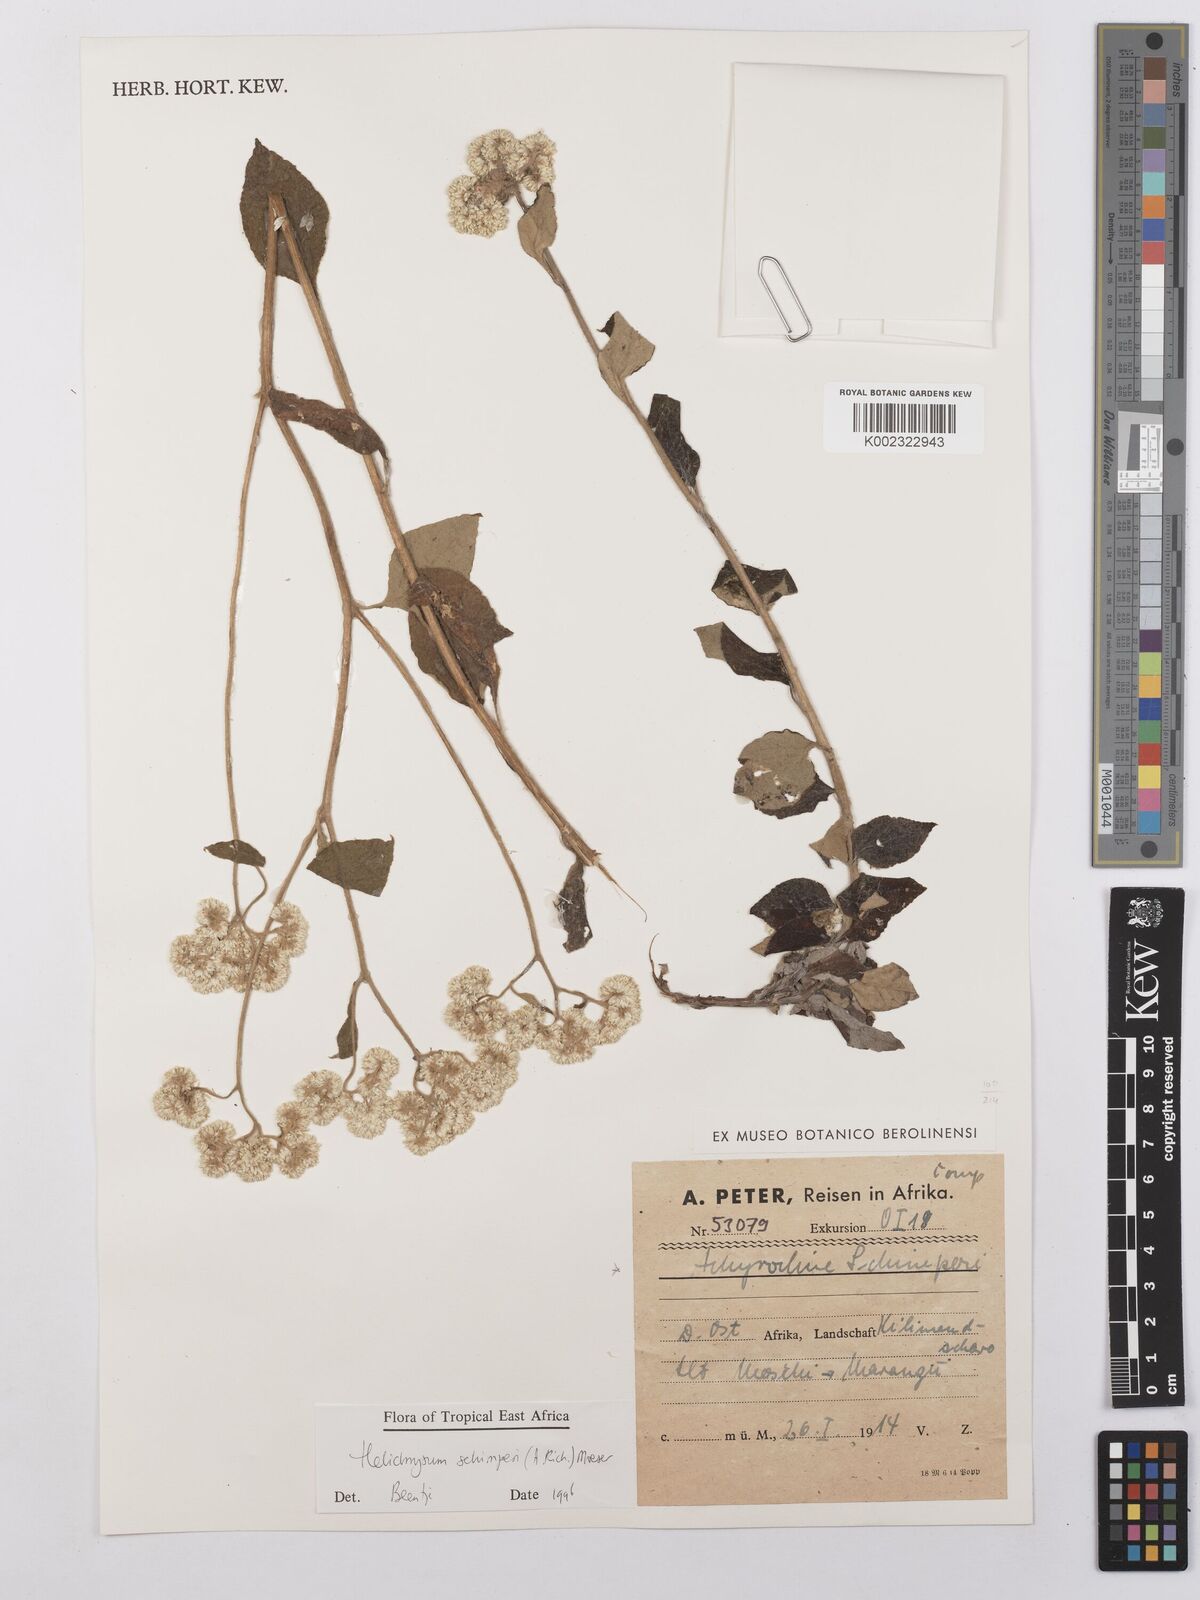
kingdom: Plantae
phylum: Tracheophyta
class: Magnoliopsida
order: Asterales
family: Asteraceae
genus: Helichrysum
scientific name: Helichrysum schimperi
